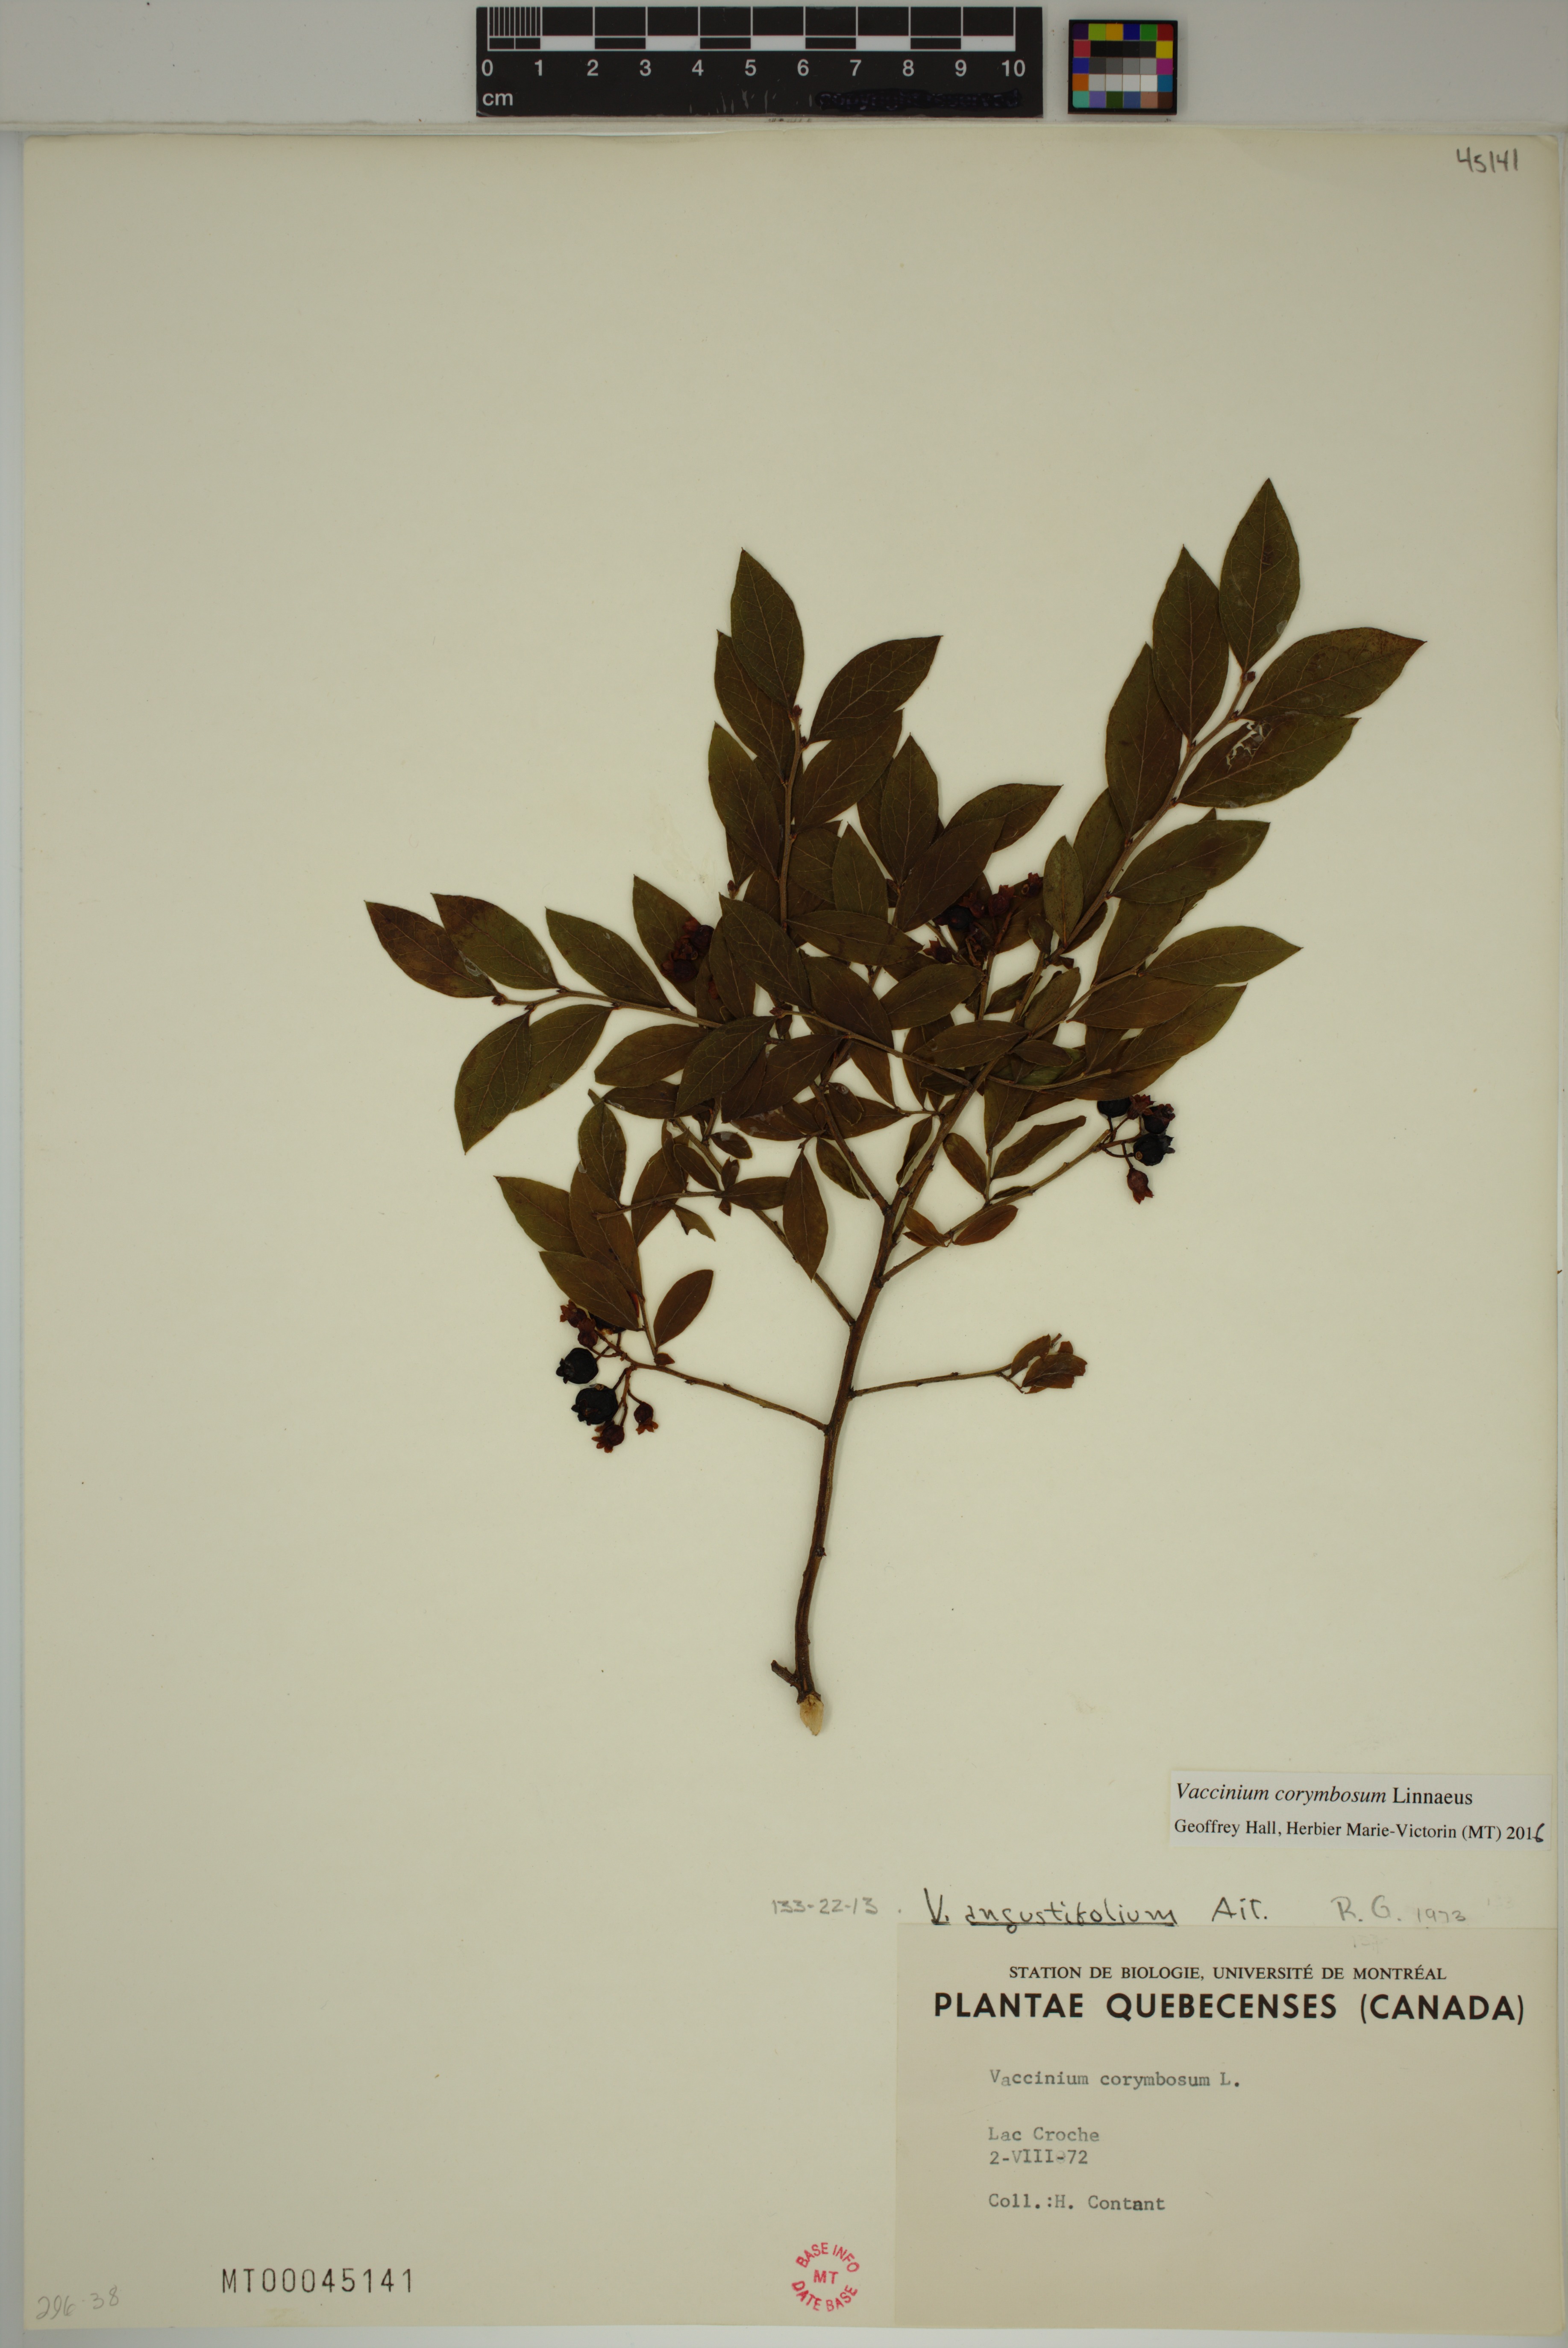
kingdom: Plantae
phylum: Tracheophyta
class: Magnoliopsida
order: Ericales
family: Ericaceae
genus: Vaccinium
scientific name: Vaccinium corymbosum
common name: Blueberry
